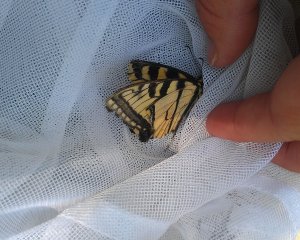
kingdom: Animalia
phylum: Arthropoda
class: Insecta
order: Lepidoptera
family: Papilionidae
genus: Pterourus
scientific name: Pterourus canadensis
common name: Canadian Tiger Swallowtail
